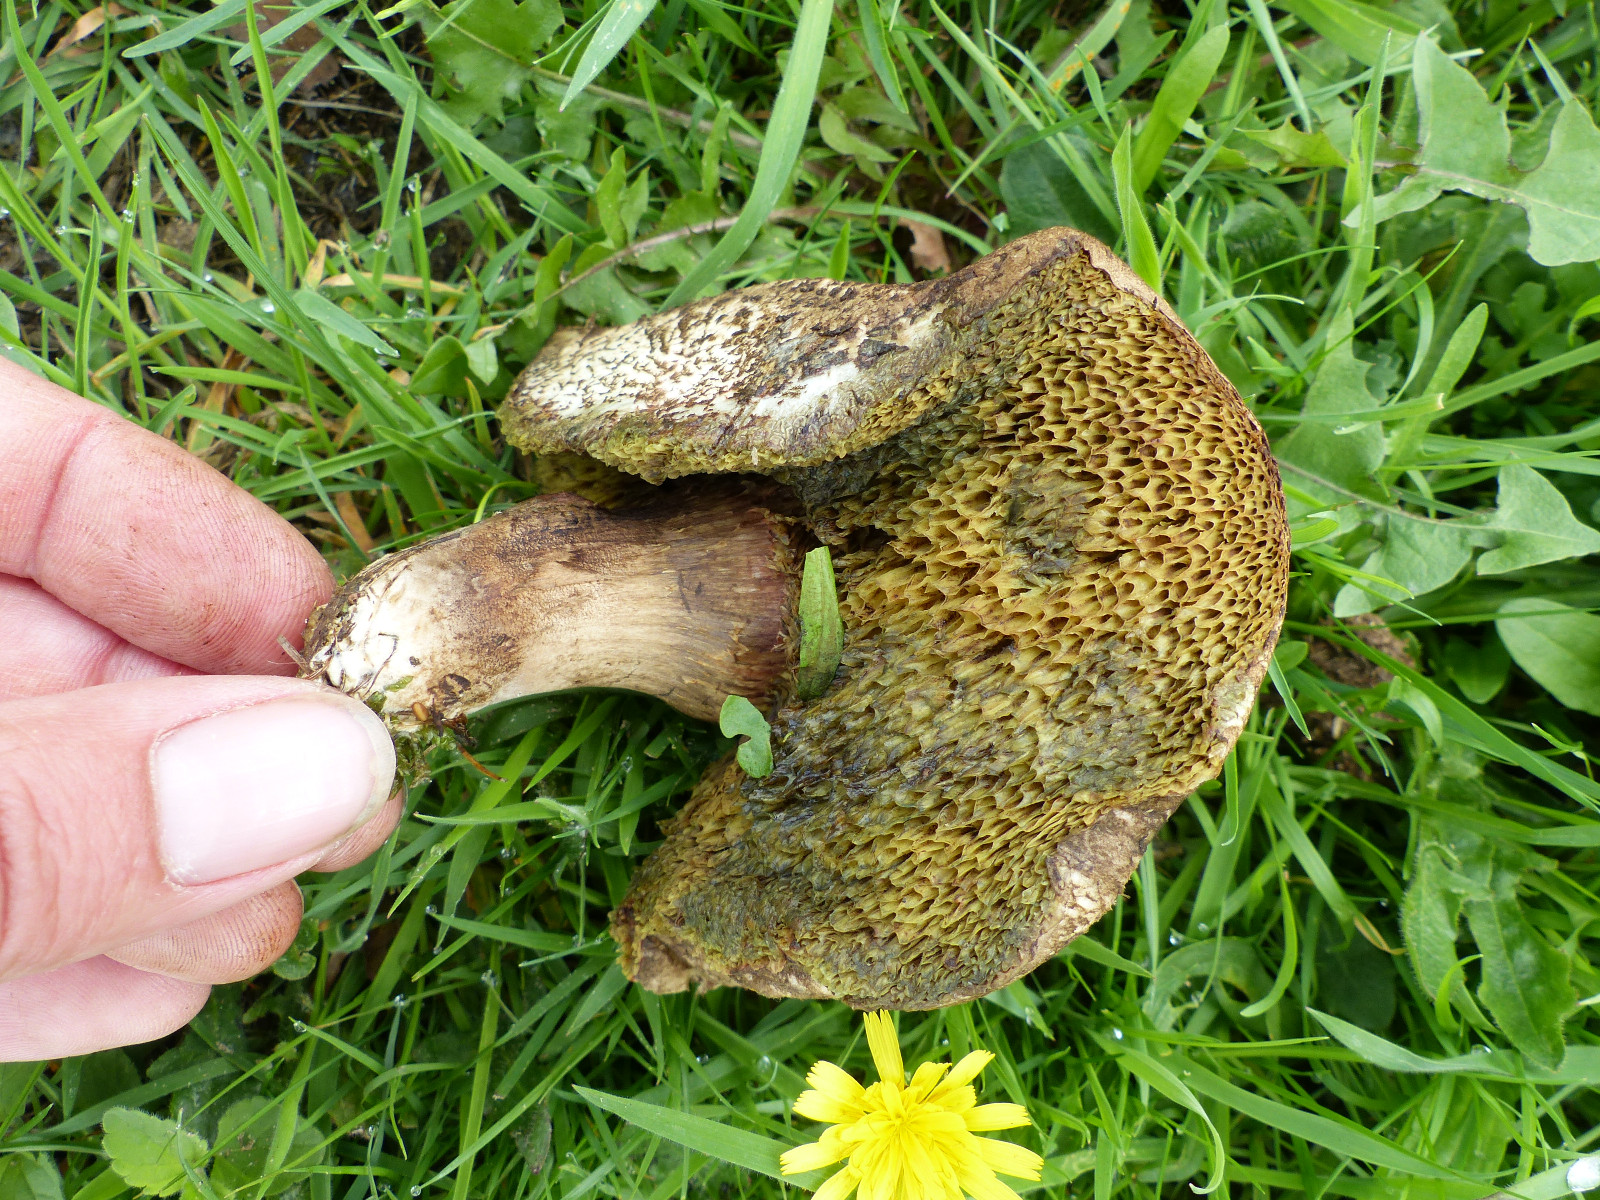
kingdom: Fungi
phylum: Basidiomycota
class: Agaricomycetes
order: Boletales
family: Boletaceae
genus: Xerocomellus
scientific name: Xerocomellus porosporus
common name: hvidsprukken rørhat
